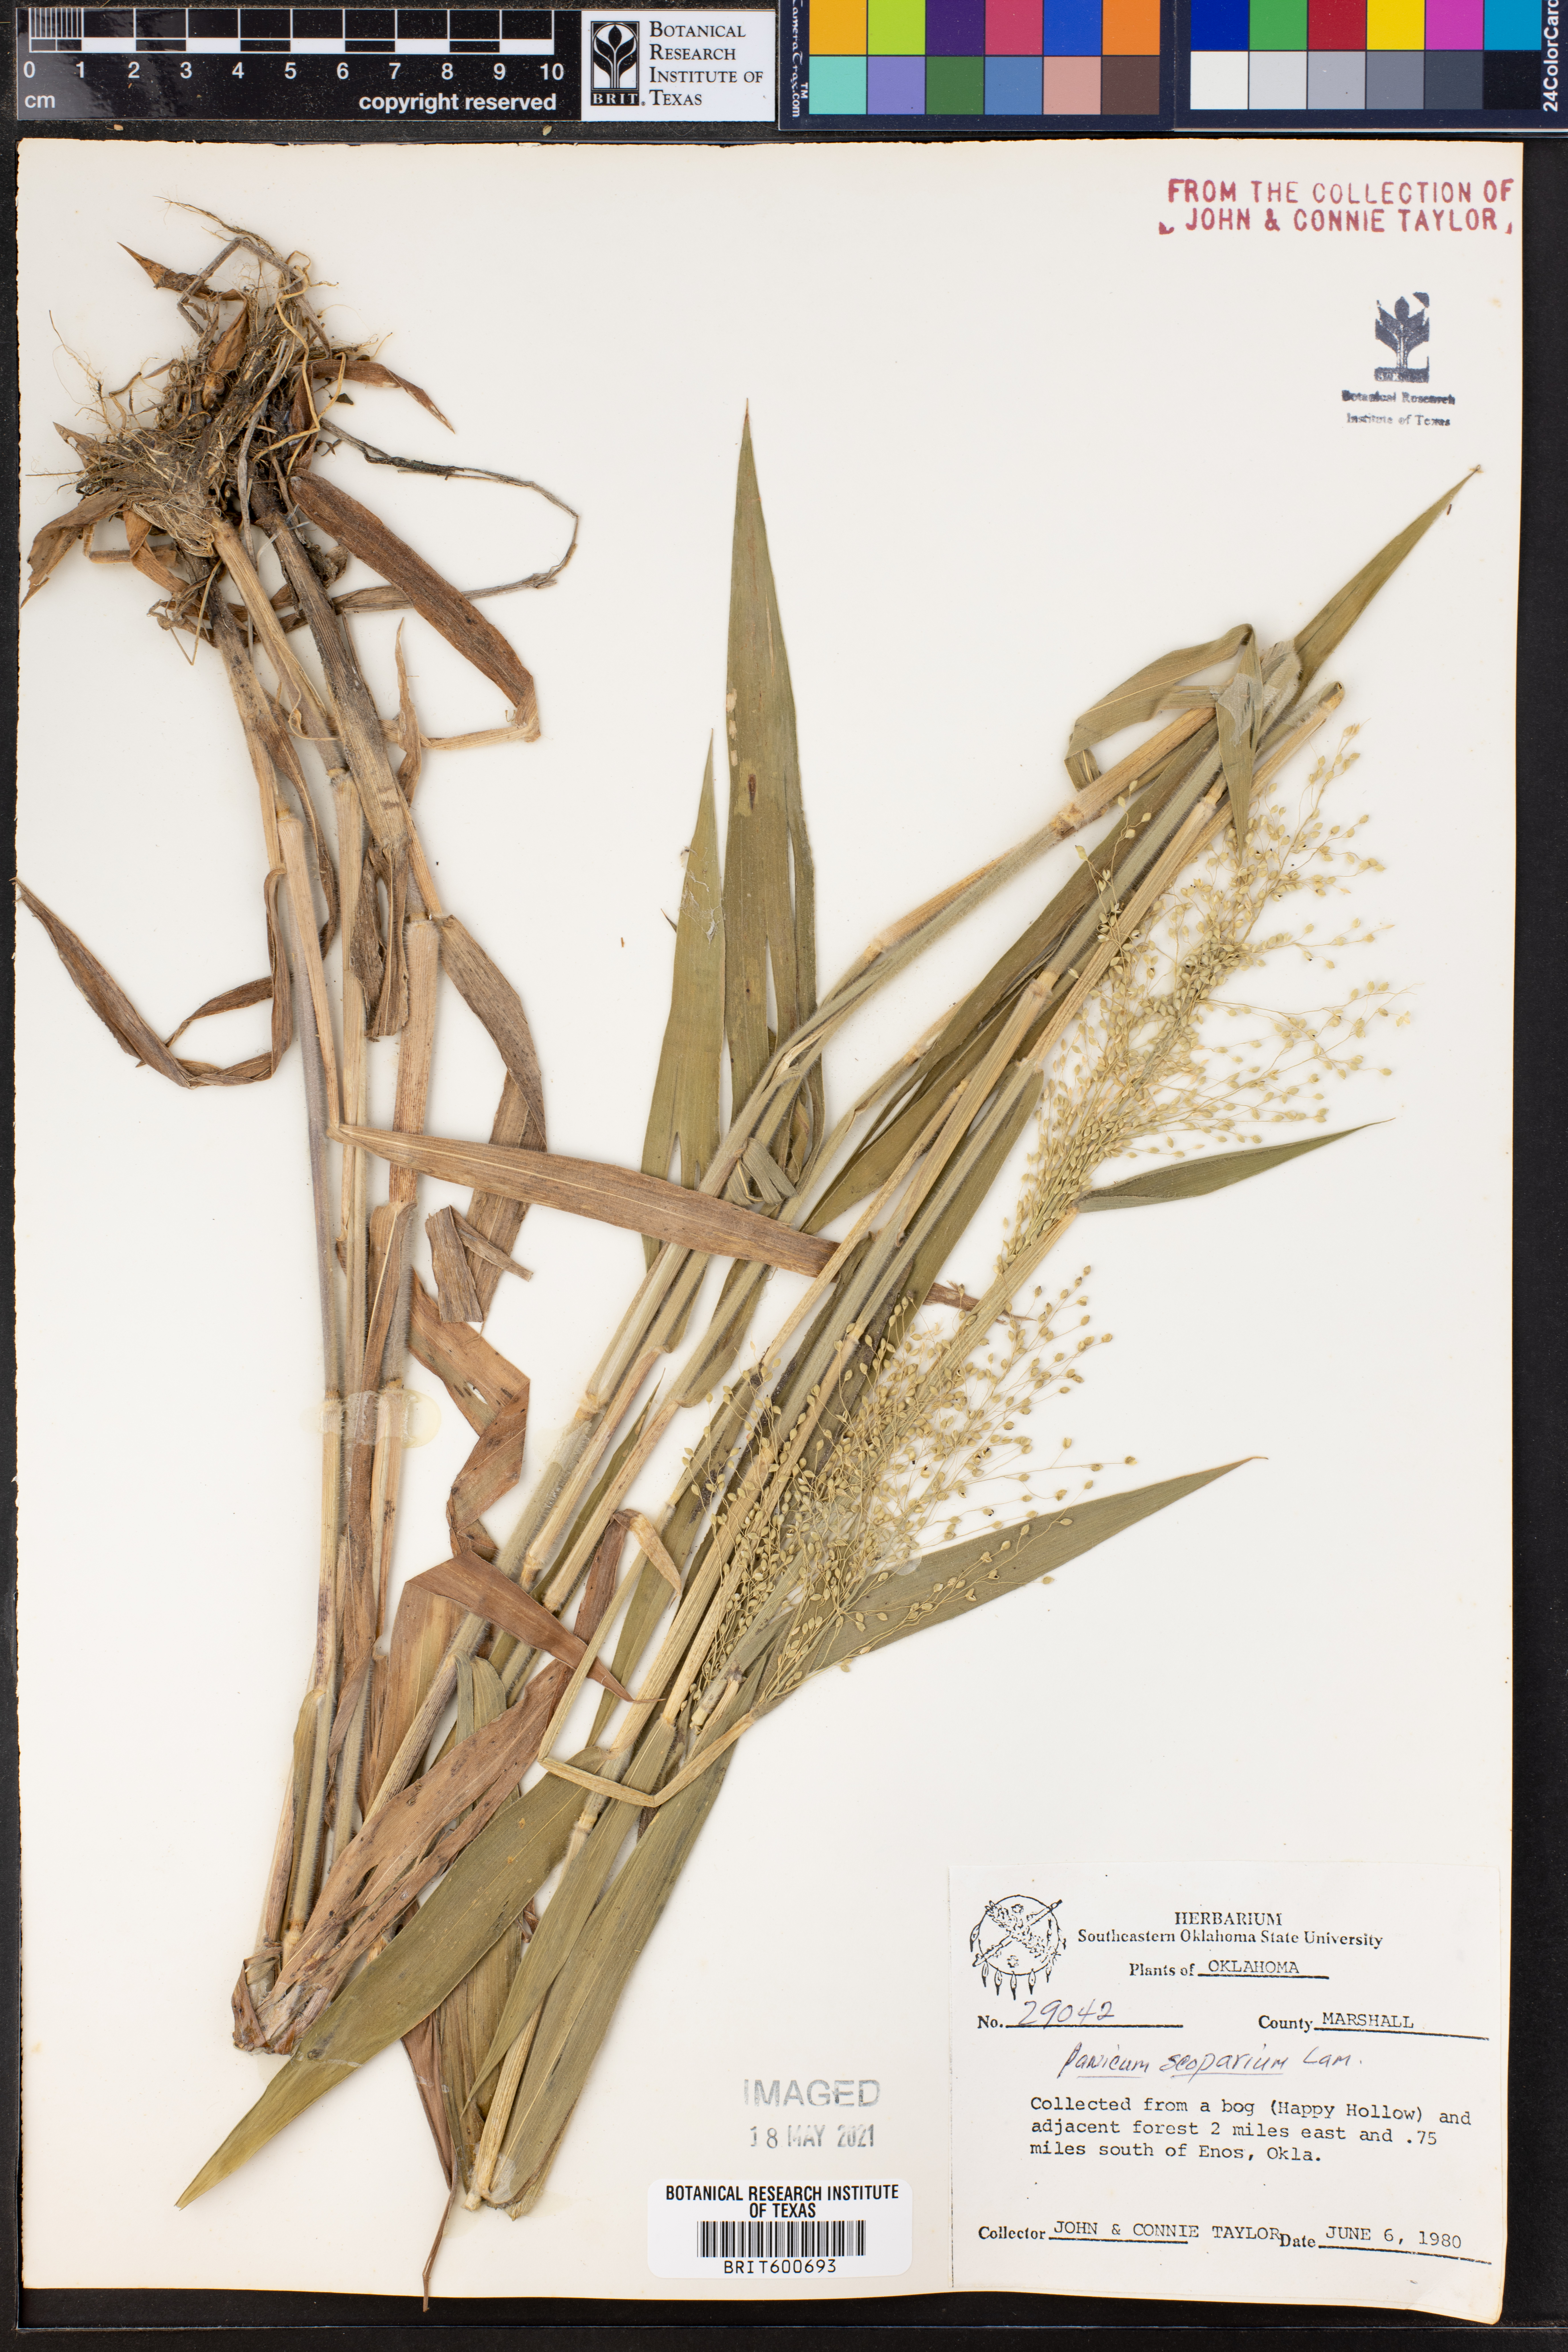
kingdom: Plantae
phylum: Tracheophyta
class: Liliopsida
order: Poales
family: Poaceae
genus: Dichanthelium
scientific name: Dichanthelium scribnerianum
